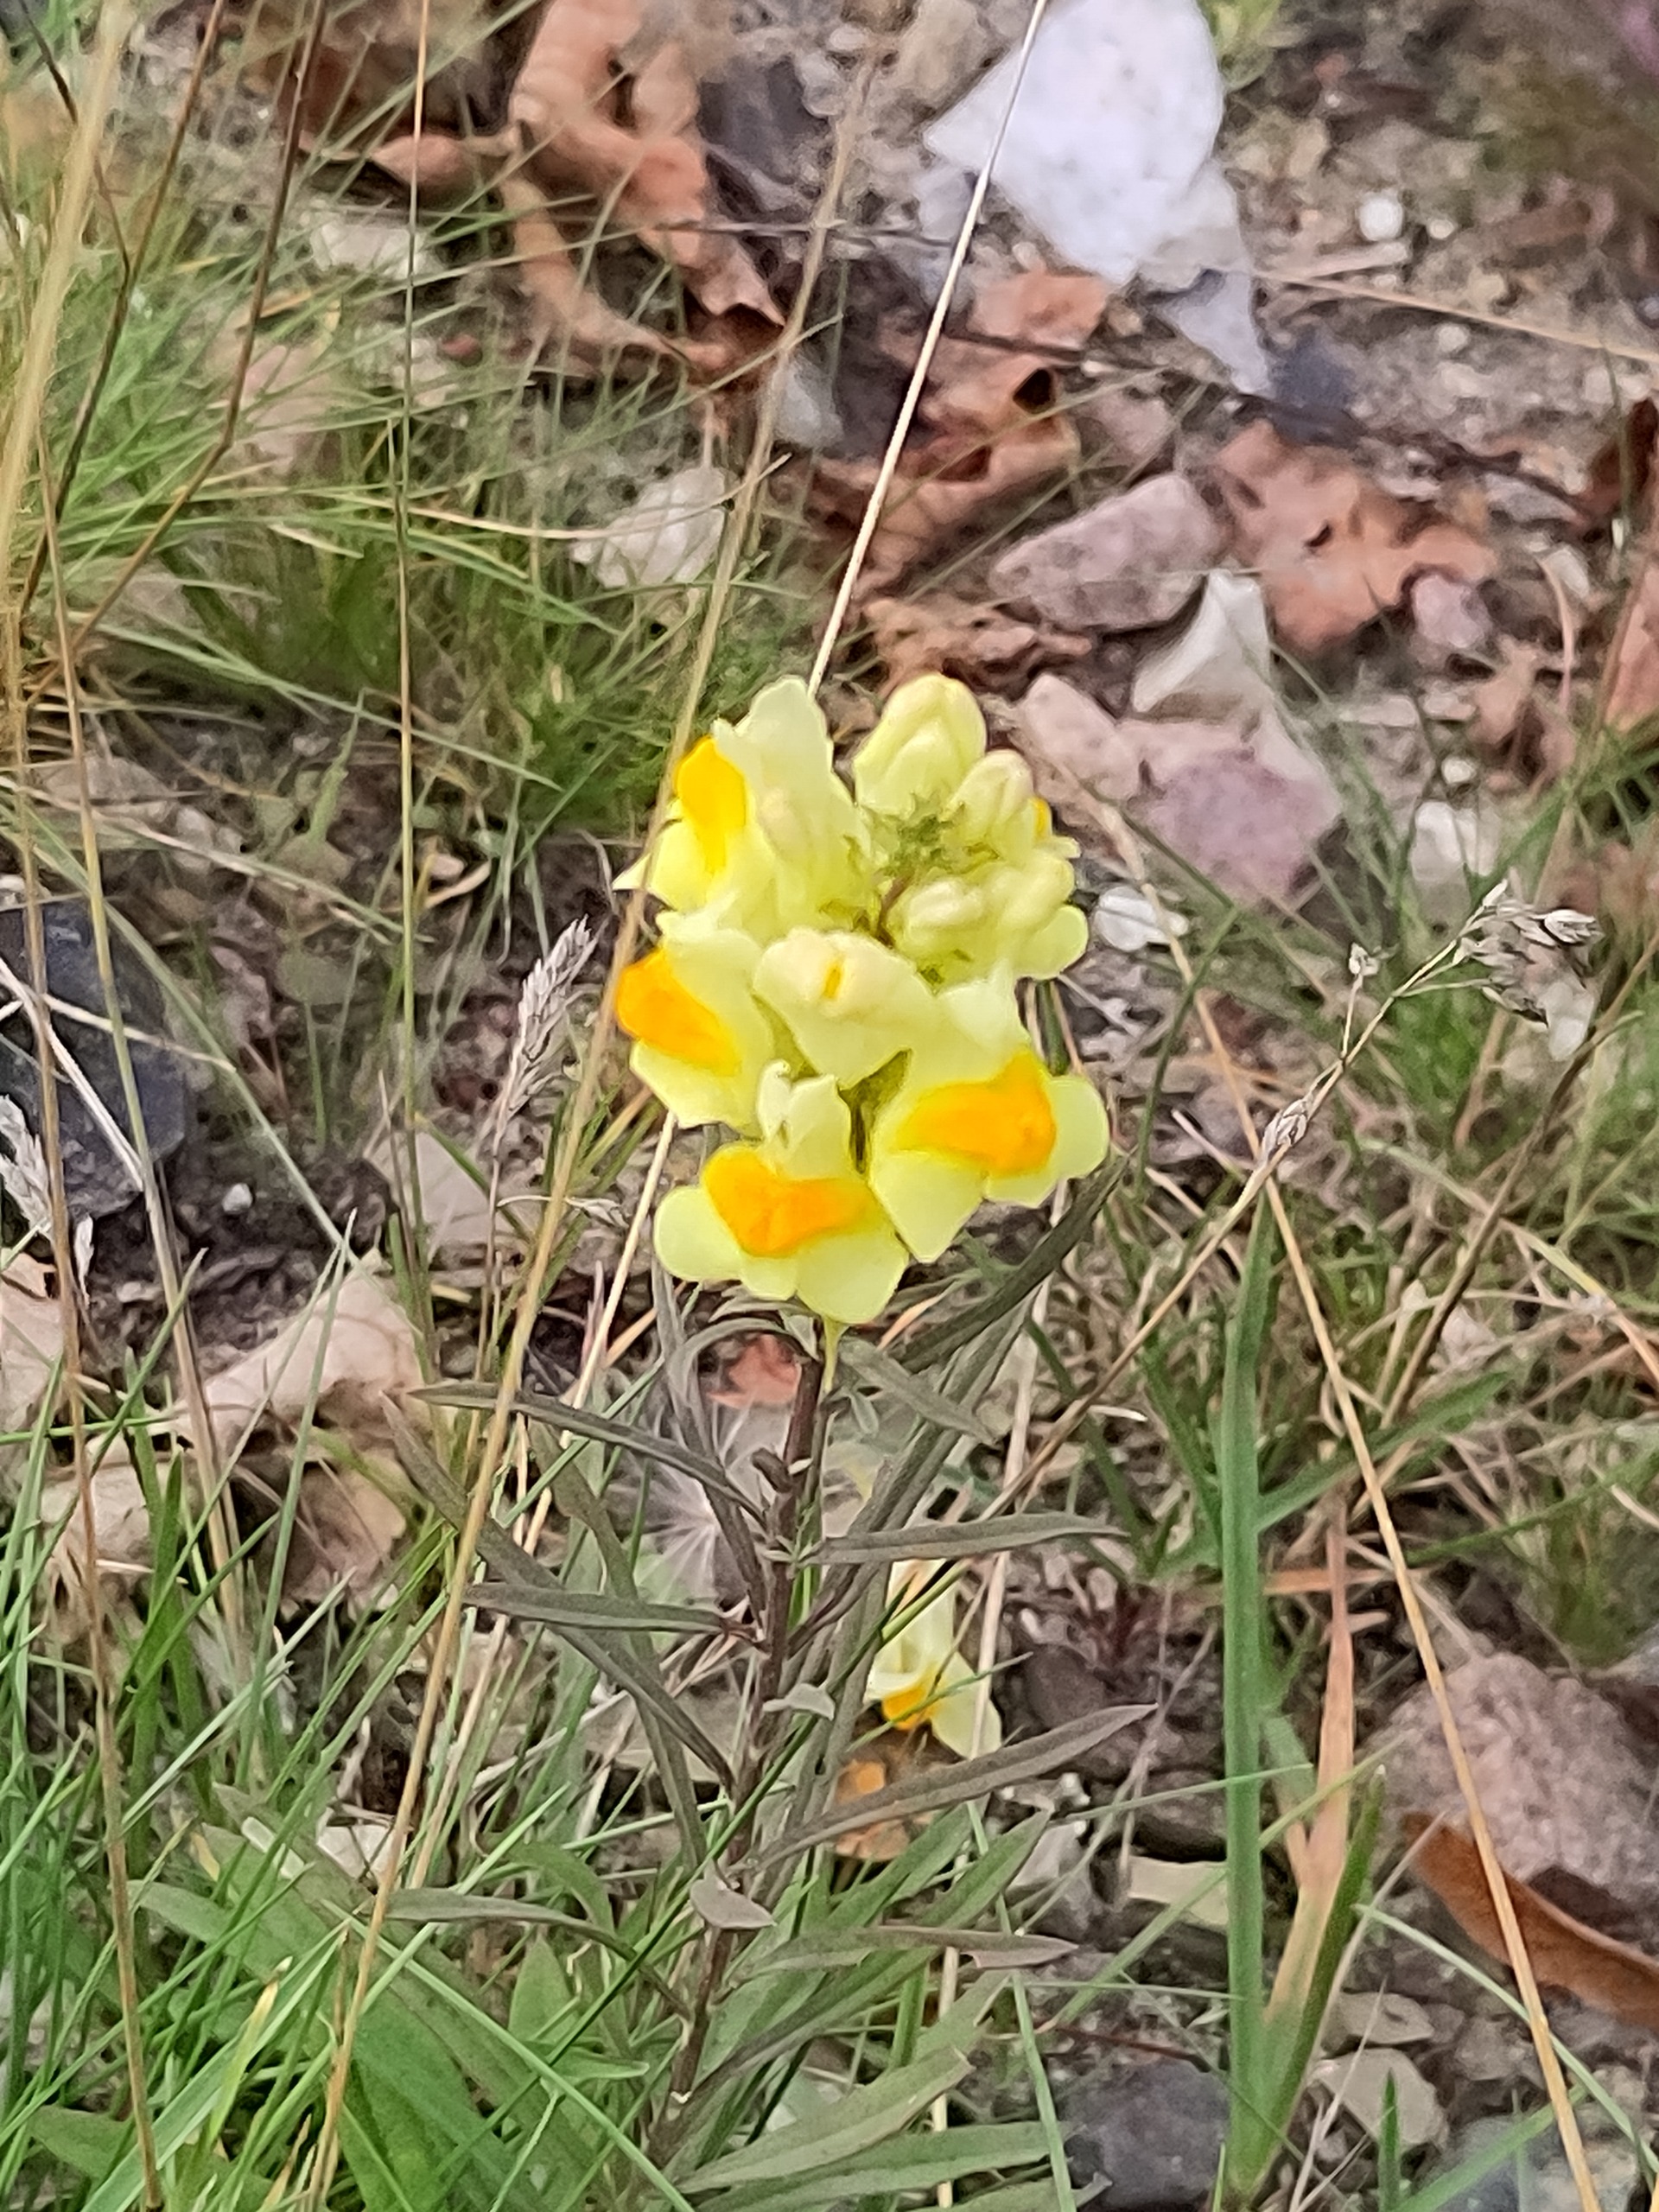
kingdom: Plantae
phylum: Tracheophyta
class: Magnoliopsida
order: Lamiales
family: Plantaginaceae
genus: Linaria
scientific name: Linaria vulgaris
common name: Almindelig torskemund
